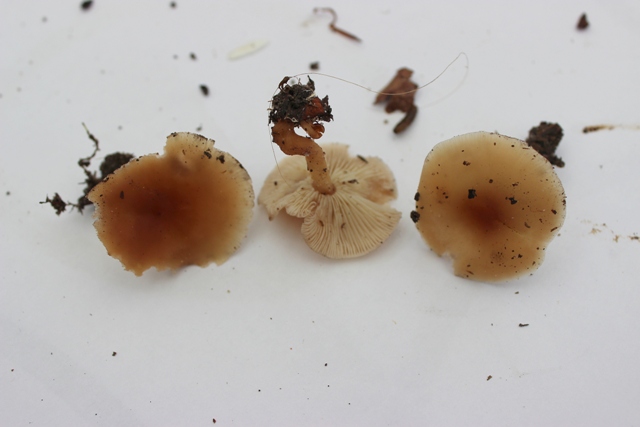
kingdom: Fungi
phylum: Basidiomycota
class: Agaricomycetes
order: Agaricales
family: Omphalotaceae
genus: Gymnopus
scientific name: Gymnopus dryophilus
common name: løv-fladhat
